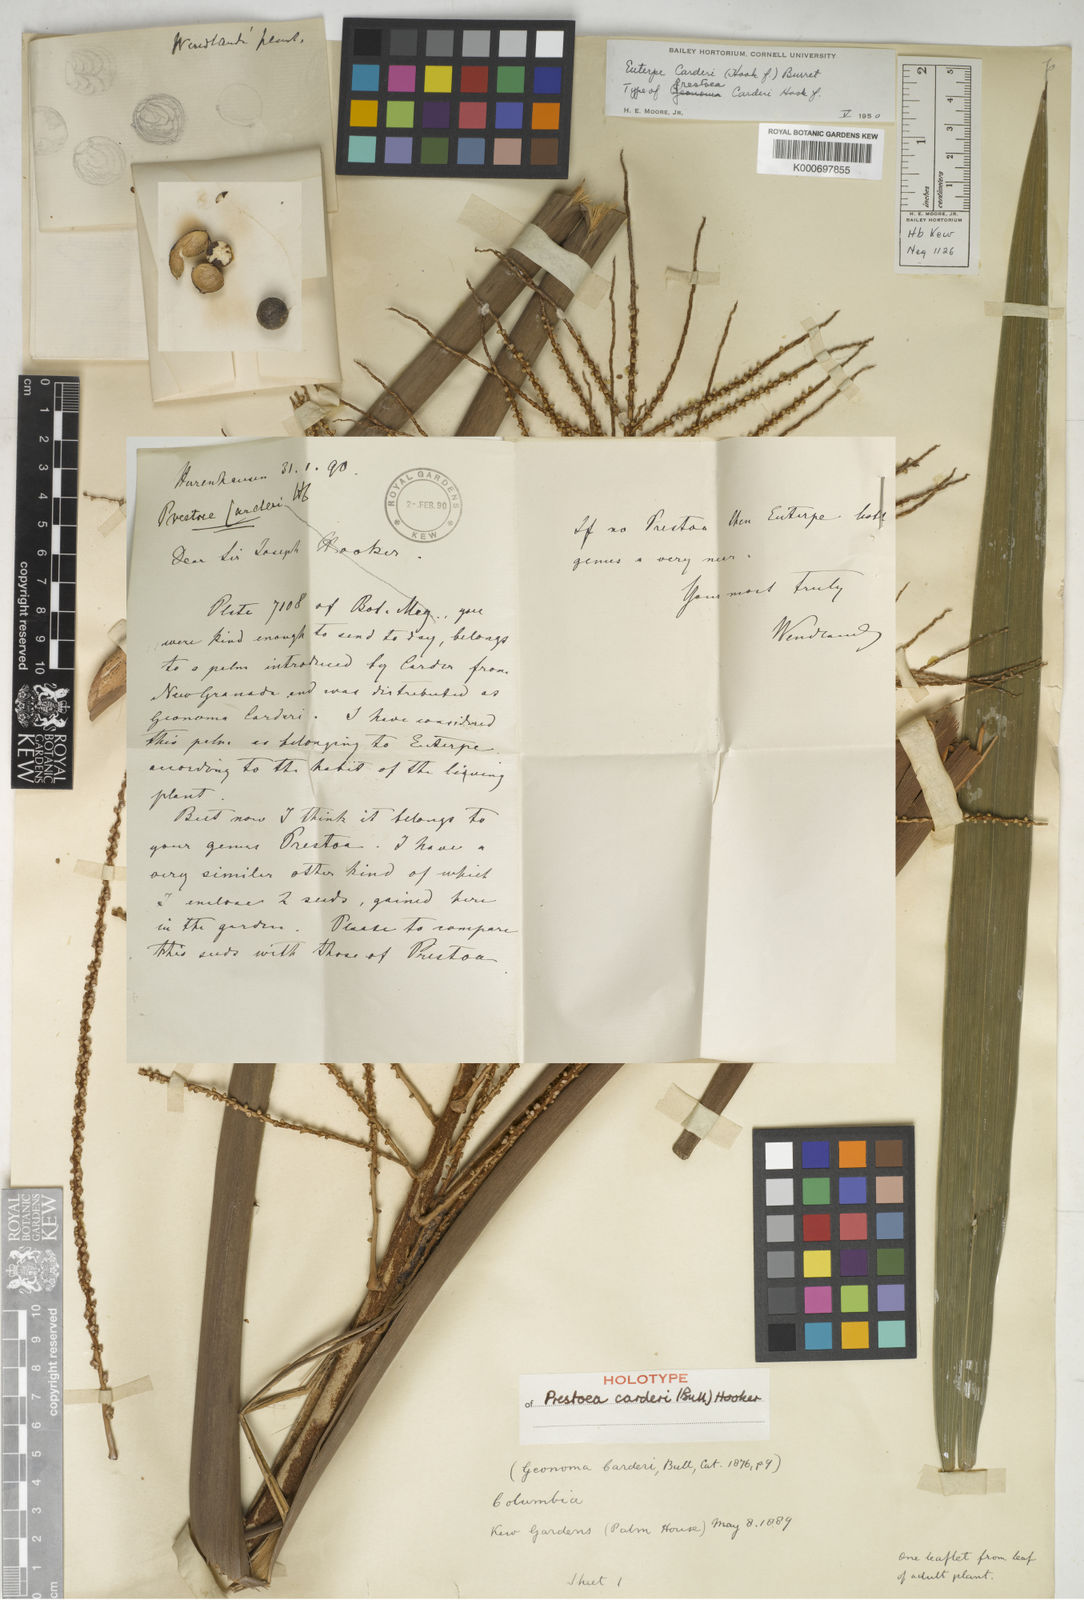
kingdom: Plantae
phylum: Tracheophyta
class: Liliopsida
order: Arecales
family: Arecaceae
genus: Prestoea
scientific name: Prestoea carderi
